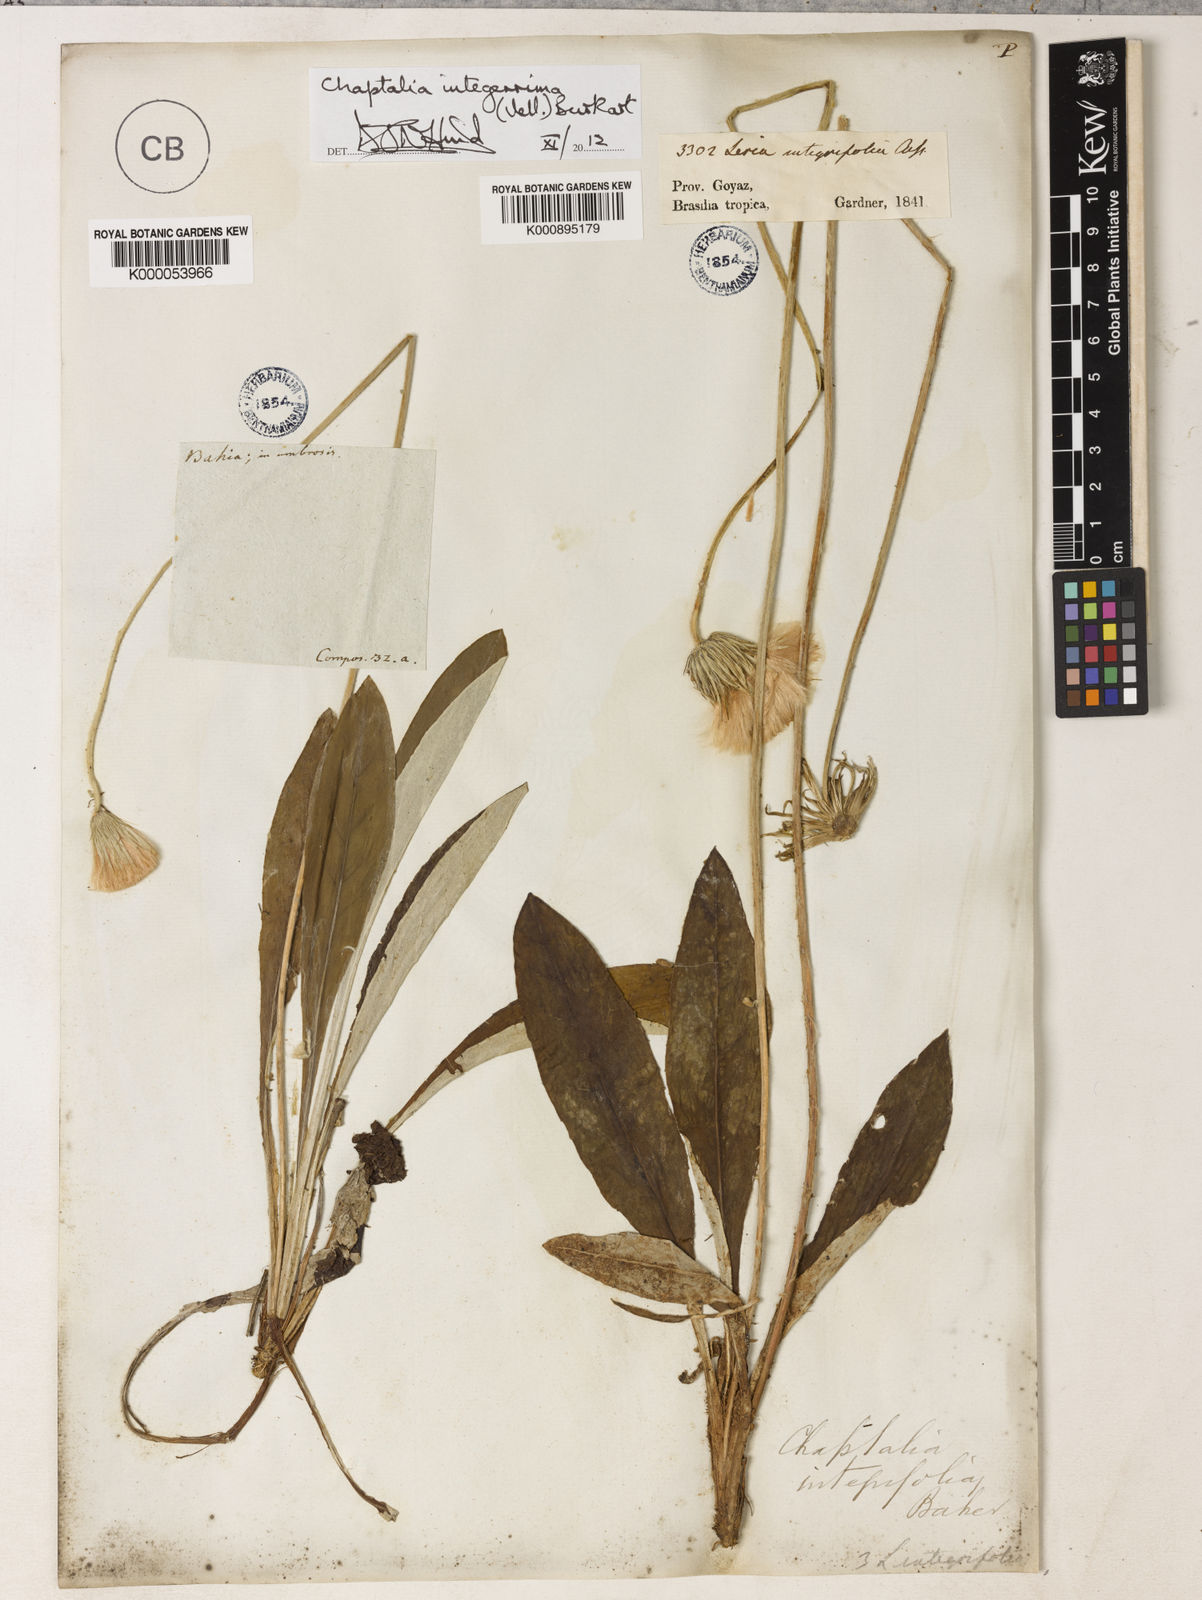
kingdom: Plantae
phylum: Tracheophyta
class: Magnoliopsida
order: Asterales
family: Asteraceae
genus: Chaptalia
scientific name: Chaptalia integerrima
